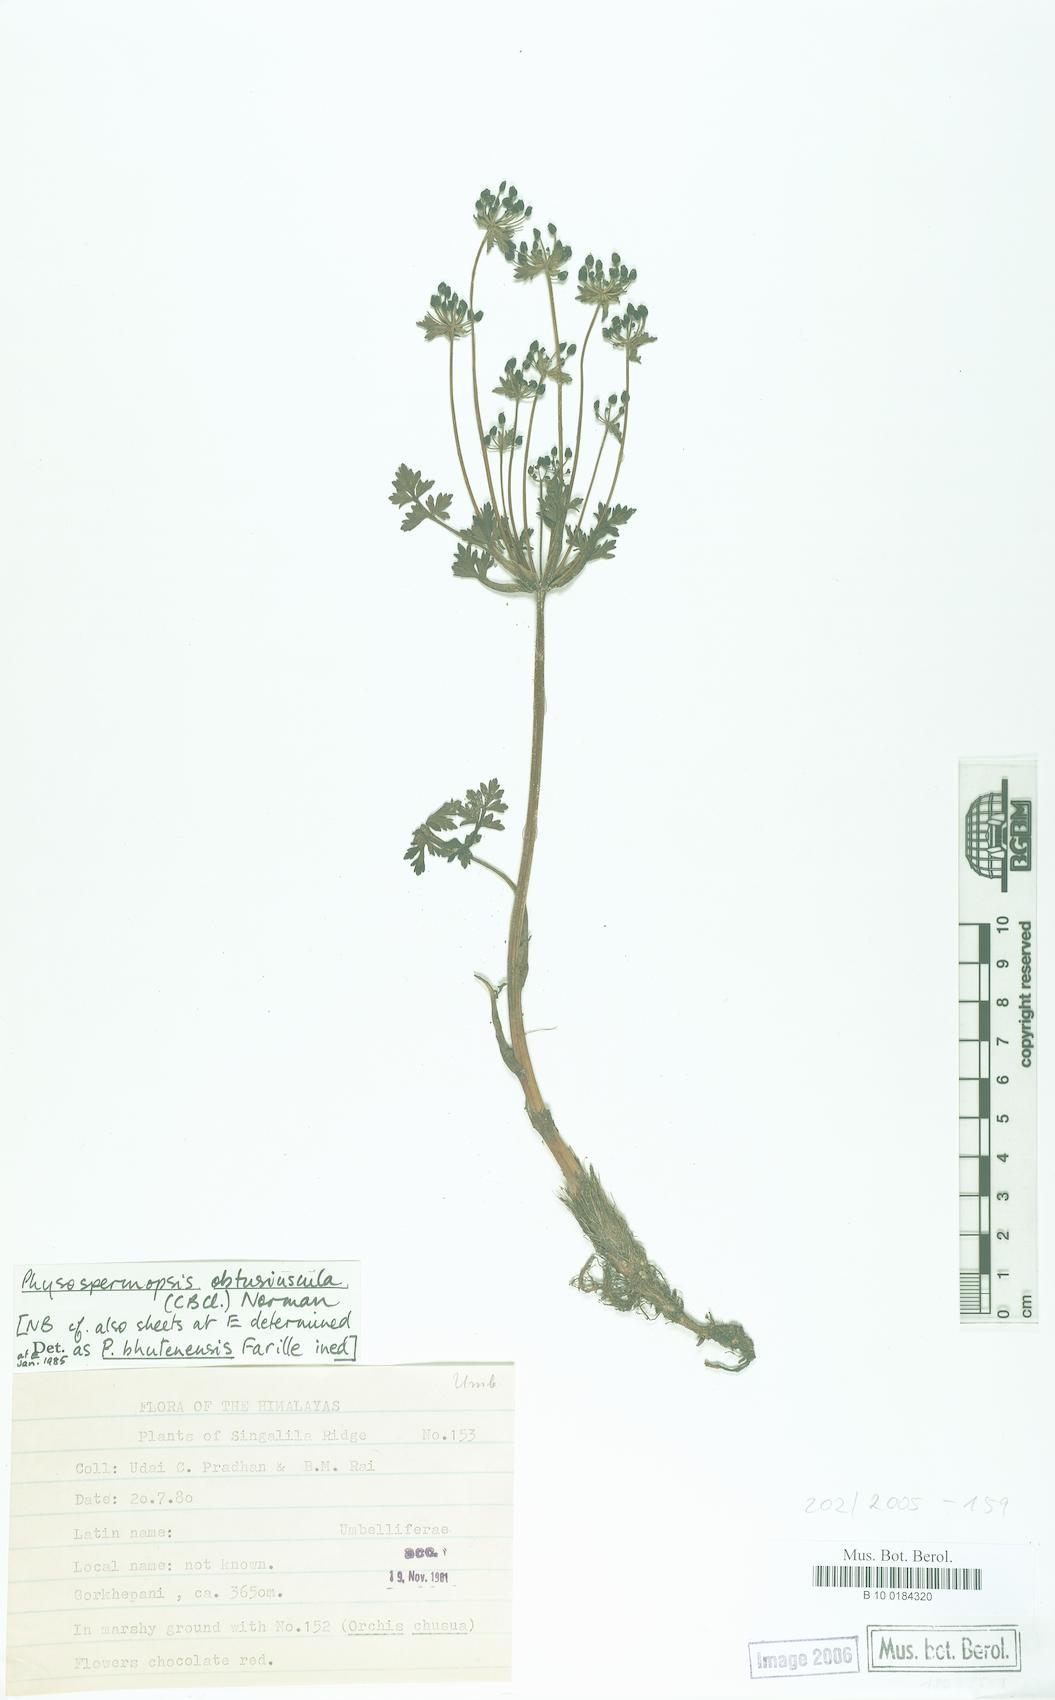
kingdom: Plantae
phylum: Tracheophyta
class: Magnoliopsida
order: Apiales
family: Apiaceae
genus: Physospermopsis
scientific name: Physospermopsis obtusiuscula
